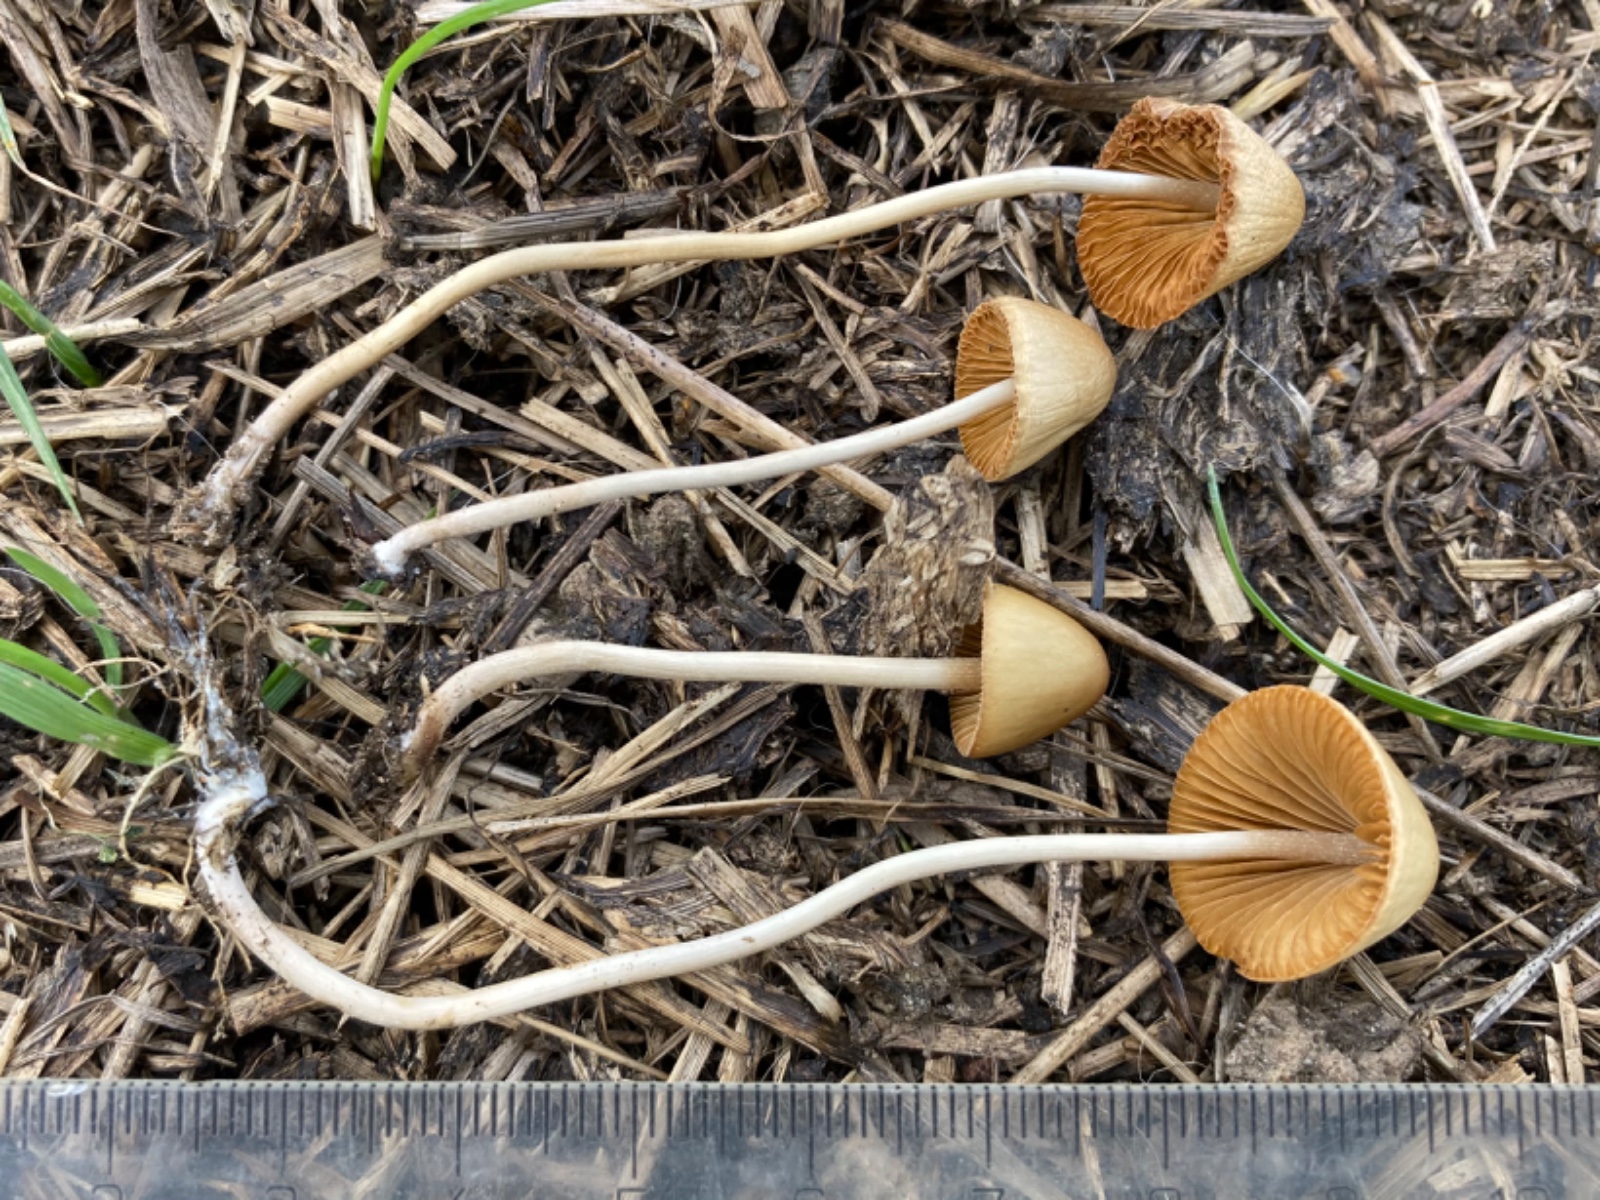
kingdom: Fungi
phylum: Basidiomycota
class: Agaricomycetes
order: Agaricales
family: Bolbitiaceae
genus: Conocybe
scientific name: Conocybe
